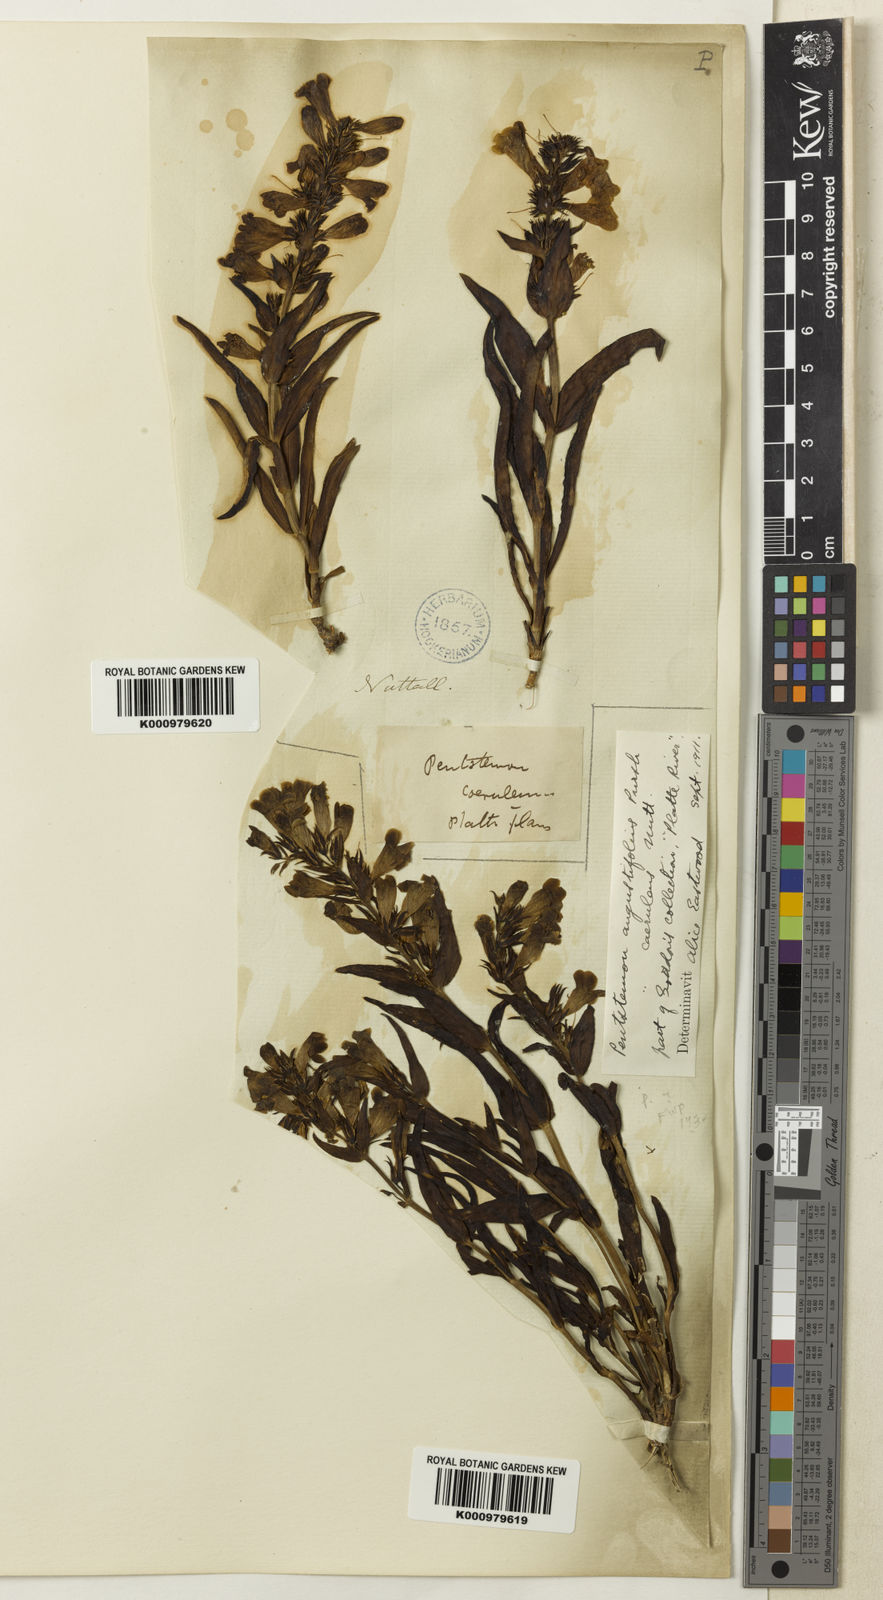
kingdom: Plantae
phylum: Tracheophyta
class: Magnoliopsida
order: Lamiales
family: Plantaginaceae
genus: Penstemon
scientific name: Penstemon angustifolius
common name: Narrow beardtongue
